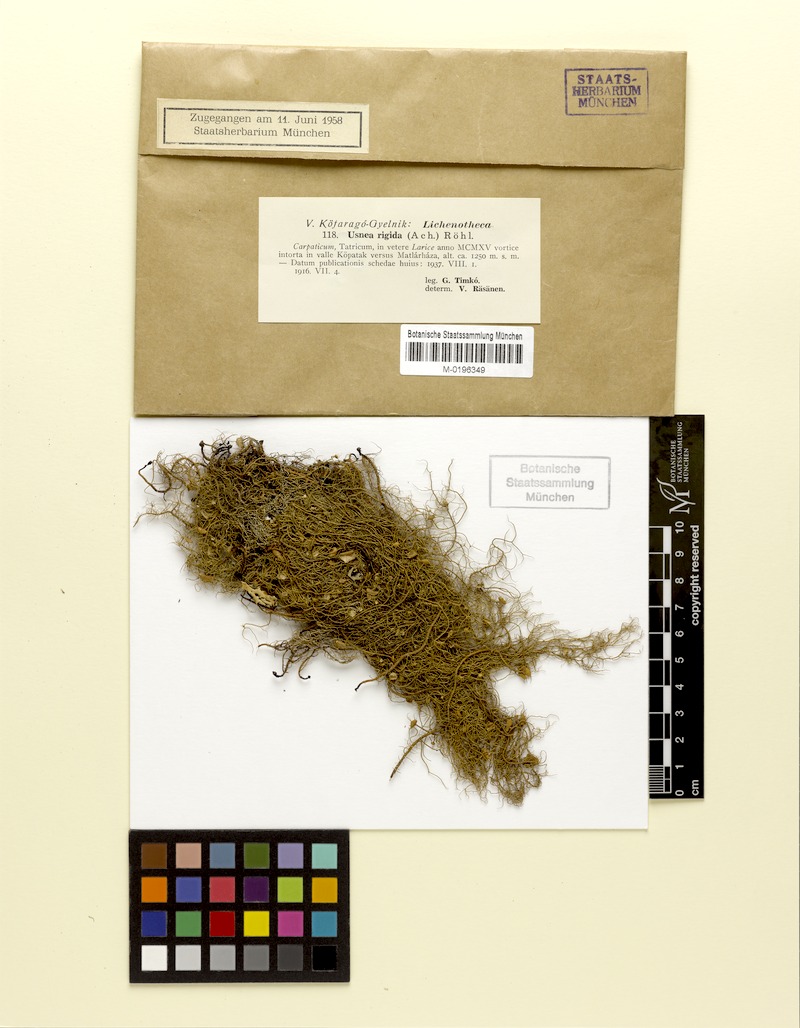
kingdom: Fungi
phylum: Ascomycota
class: Lecanoromycetes
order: Lecanorales
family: Parmeliaceae
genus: Usnea
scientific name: Usnea quasirigida
